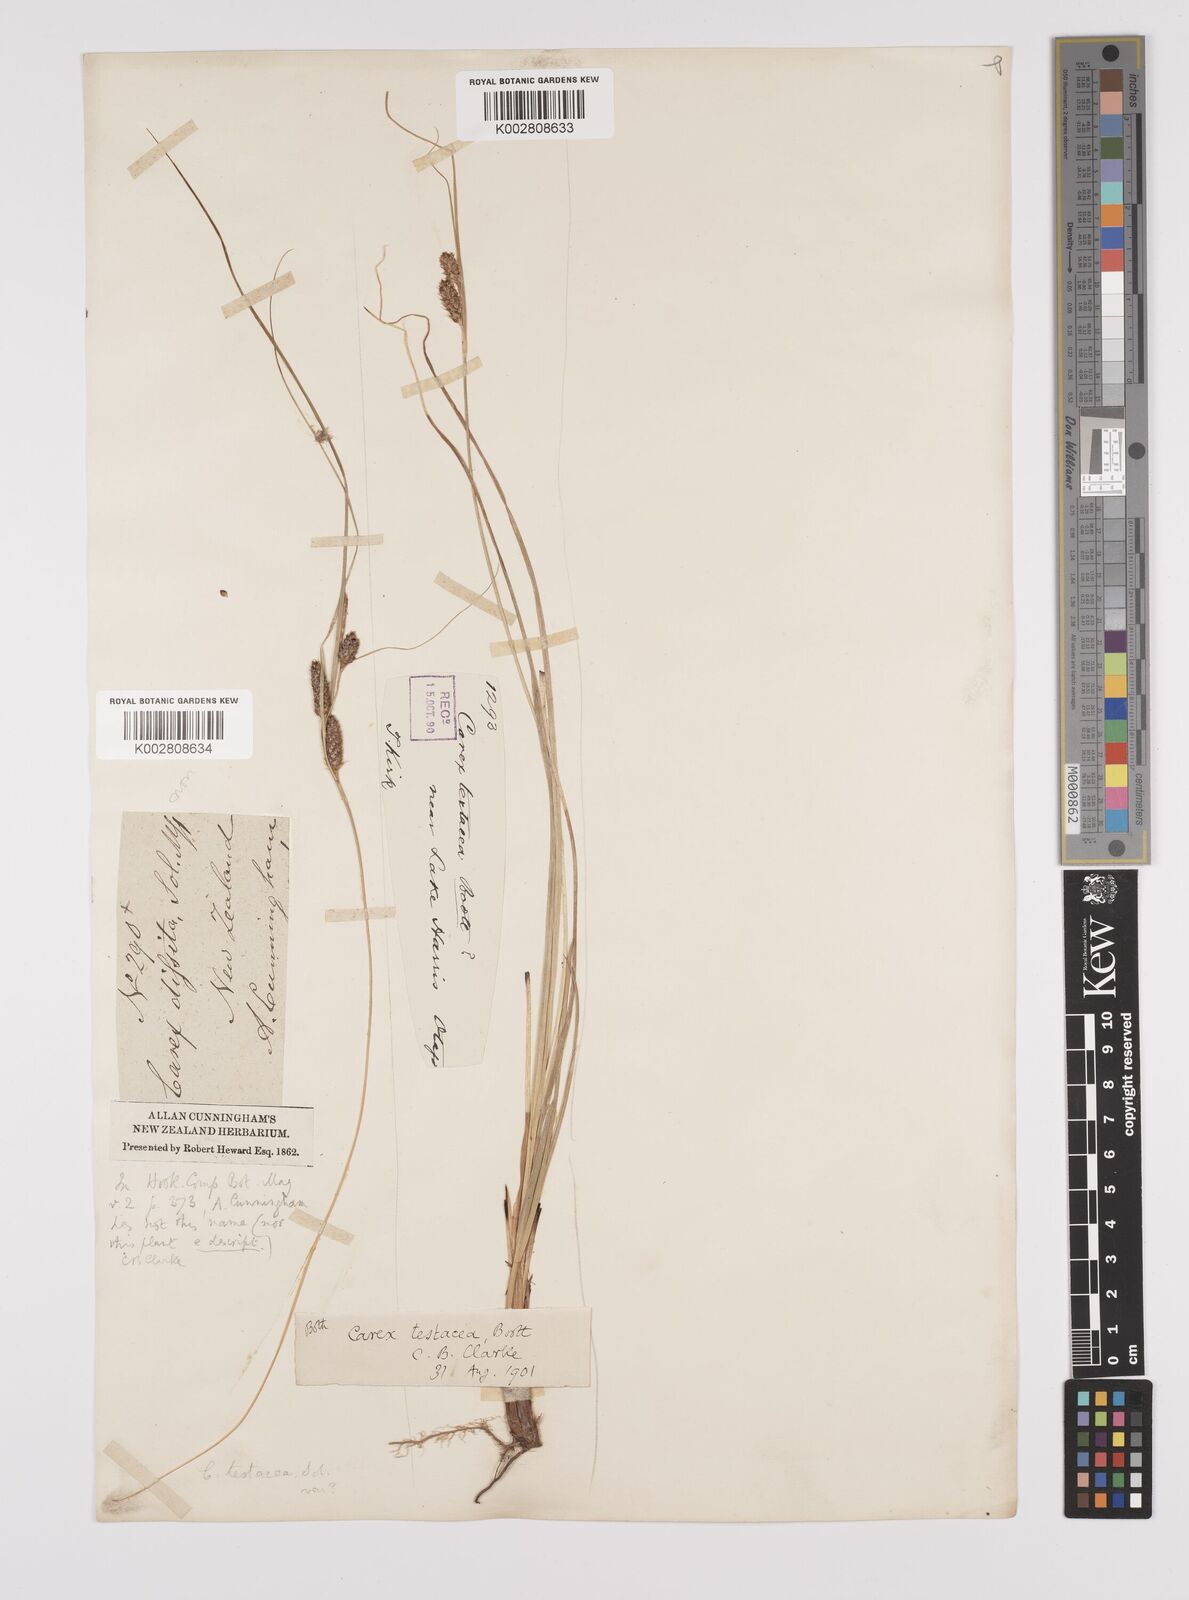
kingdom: Plantae
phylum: Tracheophyta
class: Liliopsida
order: Poales
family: Cyperaceae
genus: Carex
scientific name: Carex testacea
